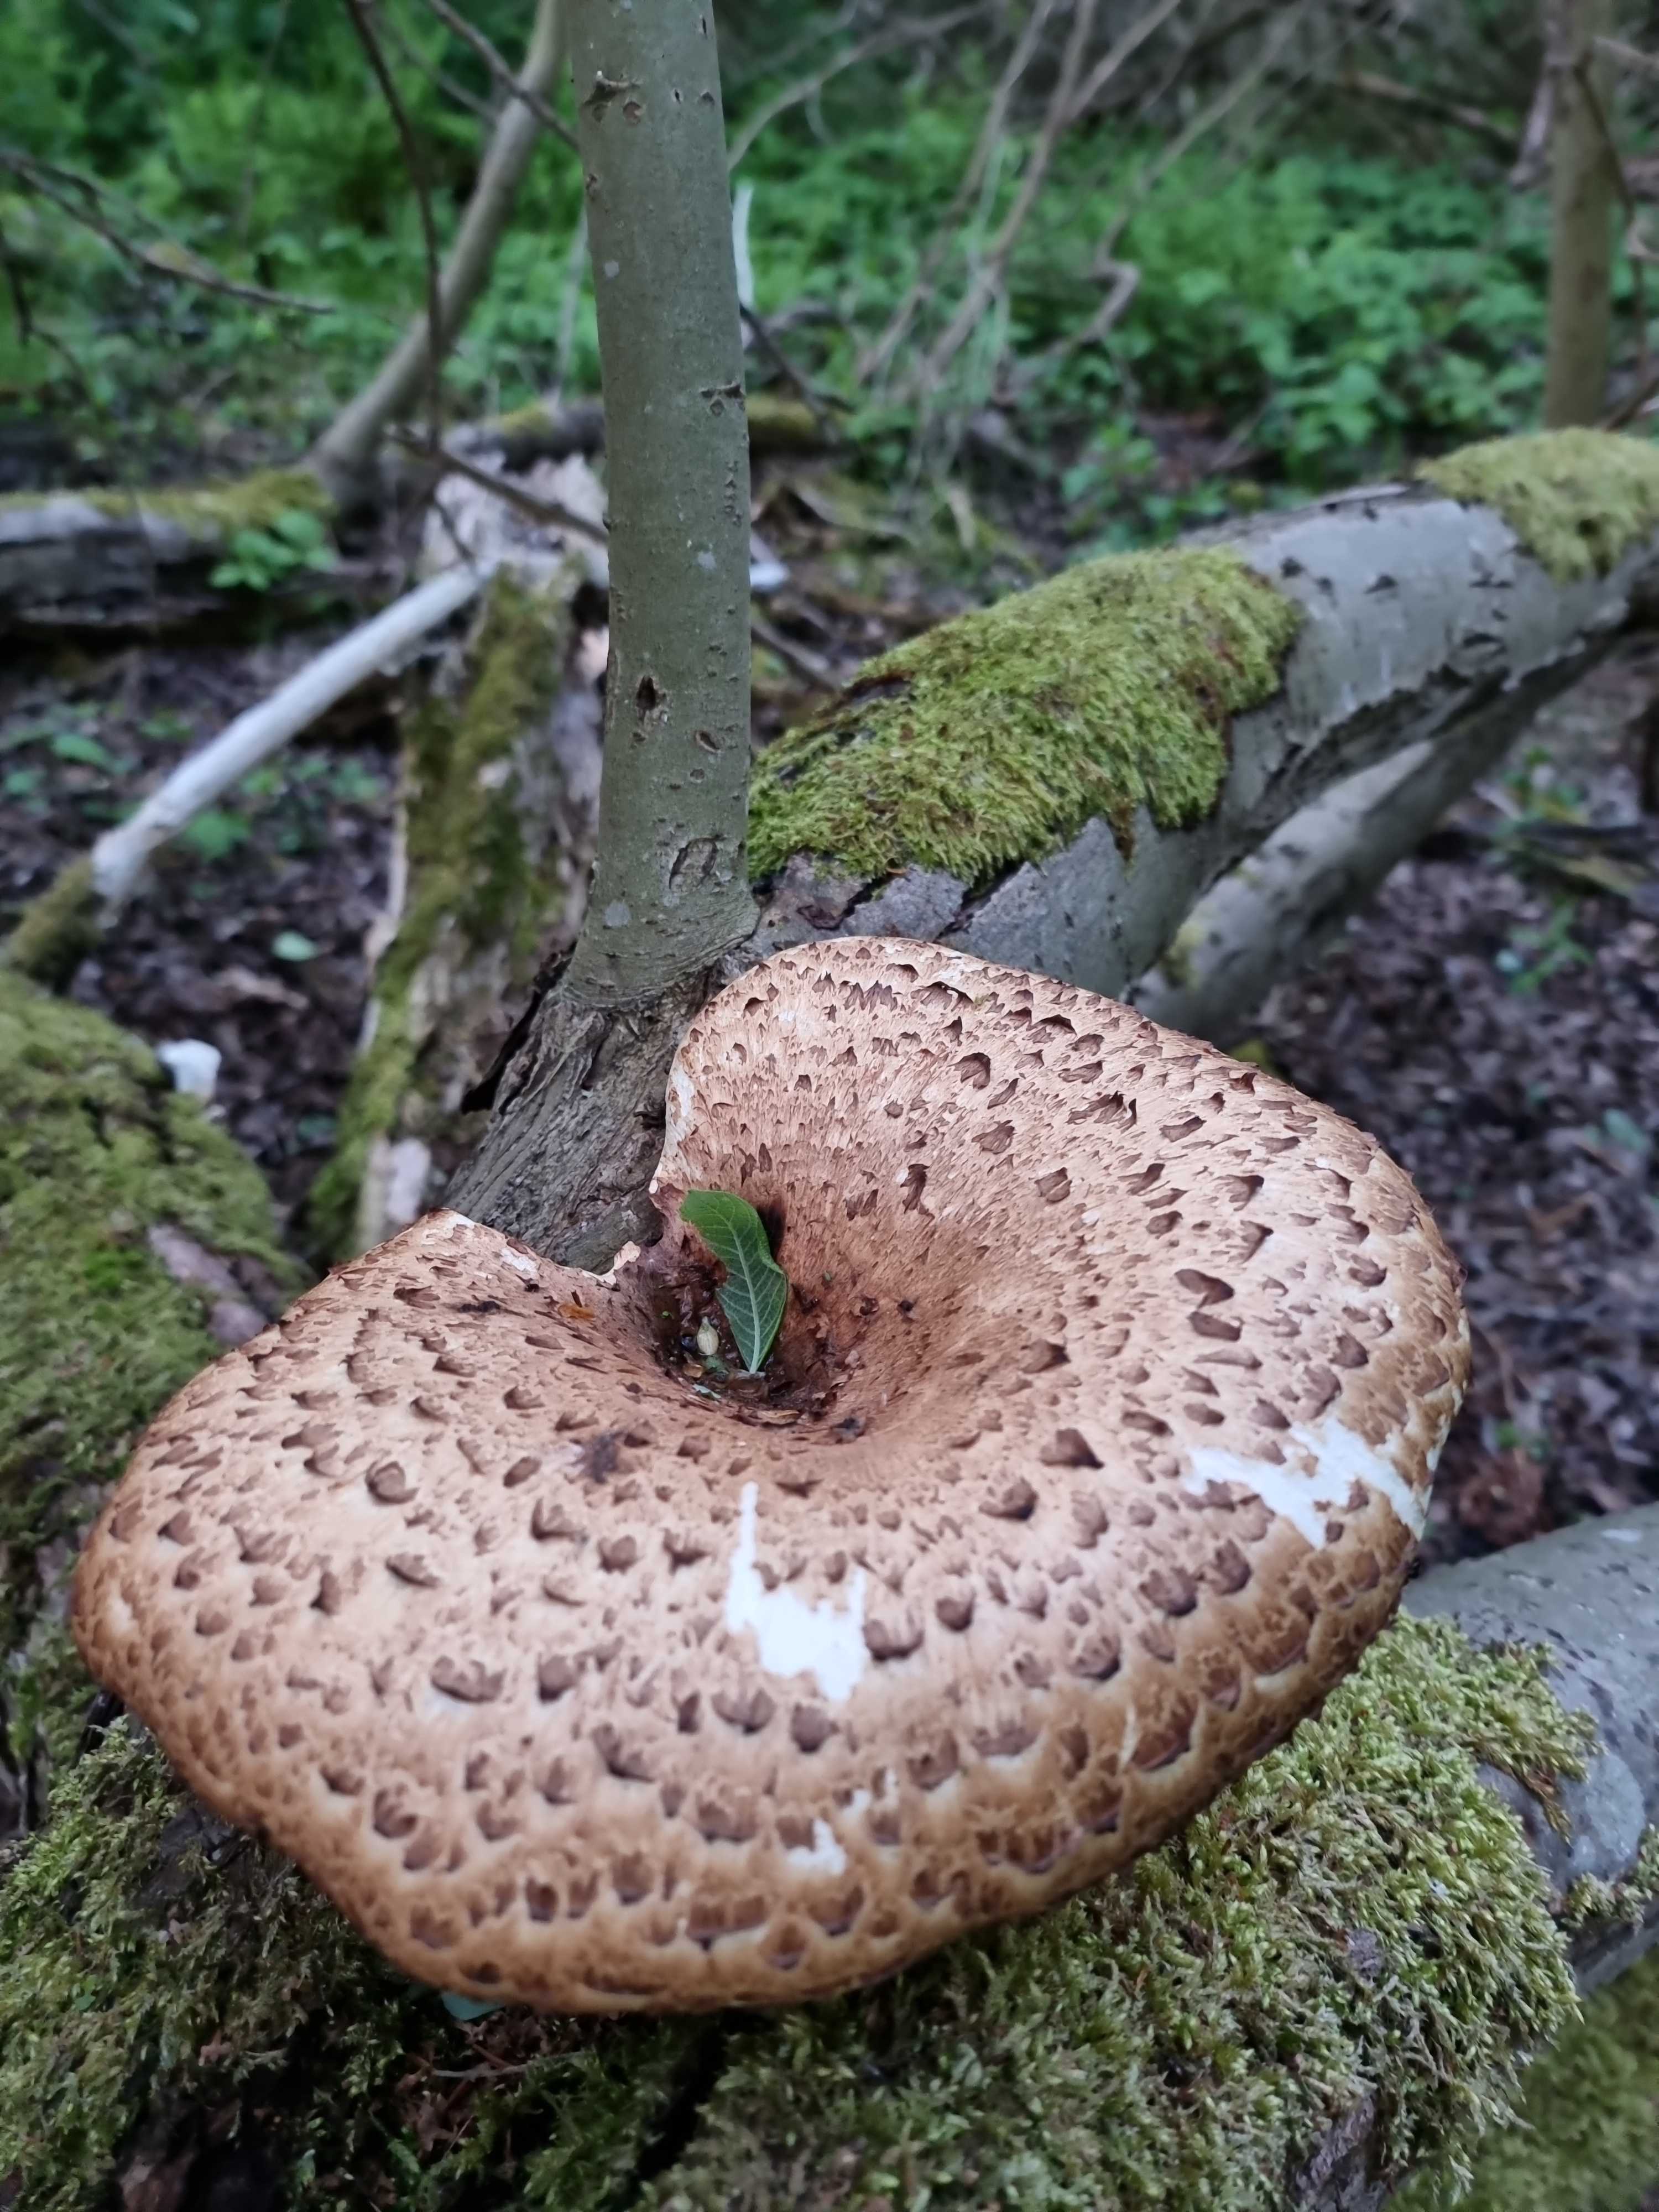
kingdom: Fungi
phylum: Basidiomycota
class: Agaricomycetes
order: Polyporales
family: Polyporaceae
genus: Cerioporus
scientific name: Cerioporus squamosus
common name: skællet stilkporesvamp
